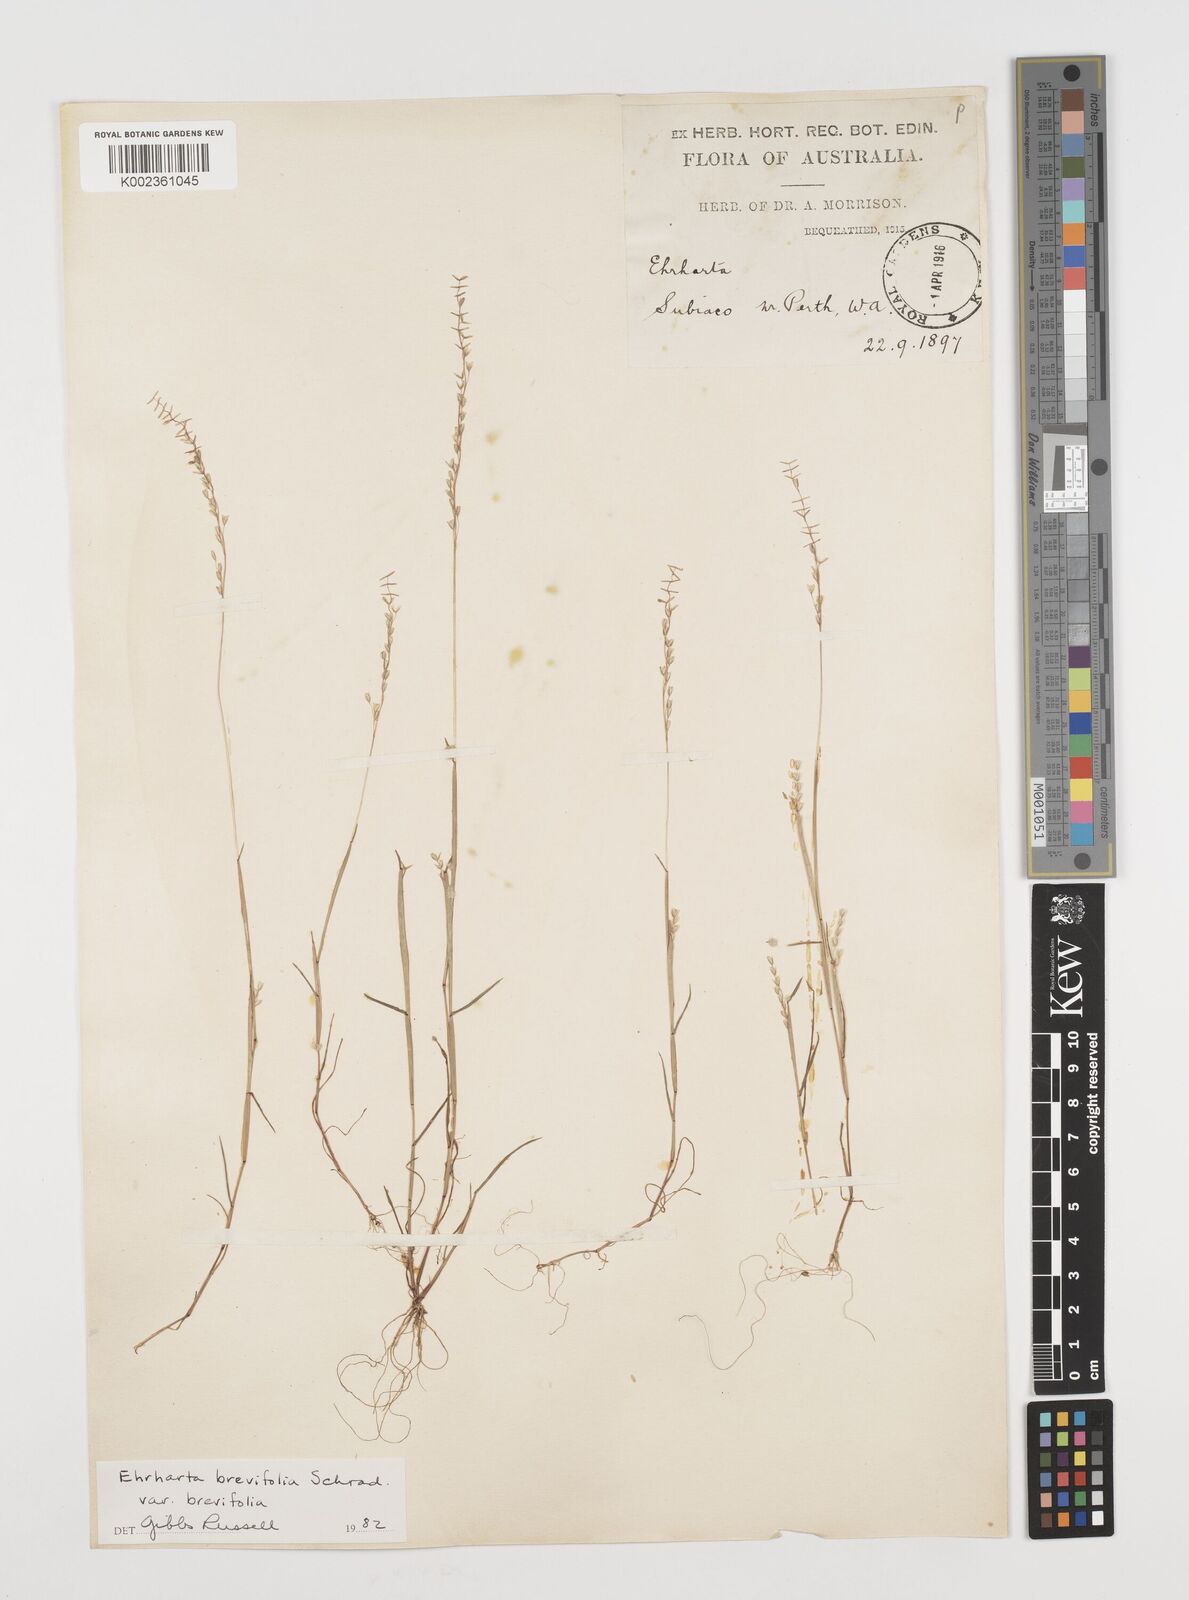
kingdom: Plantae
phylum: Tracheophyta
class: Liliopsida
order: Poales
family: Poaceae
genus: Ehrharta
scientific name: Ehrharta brevifolia
